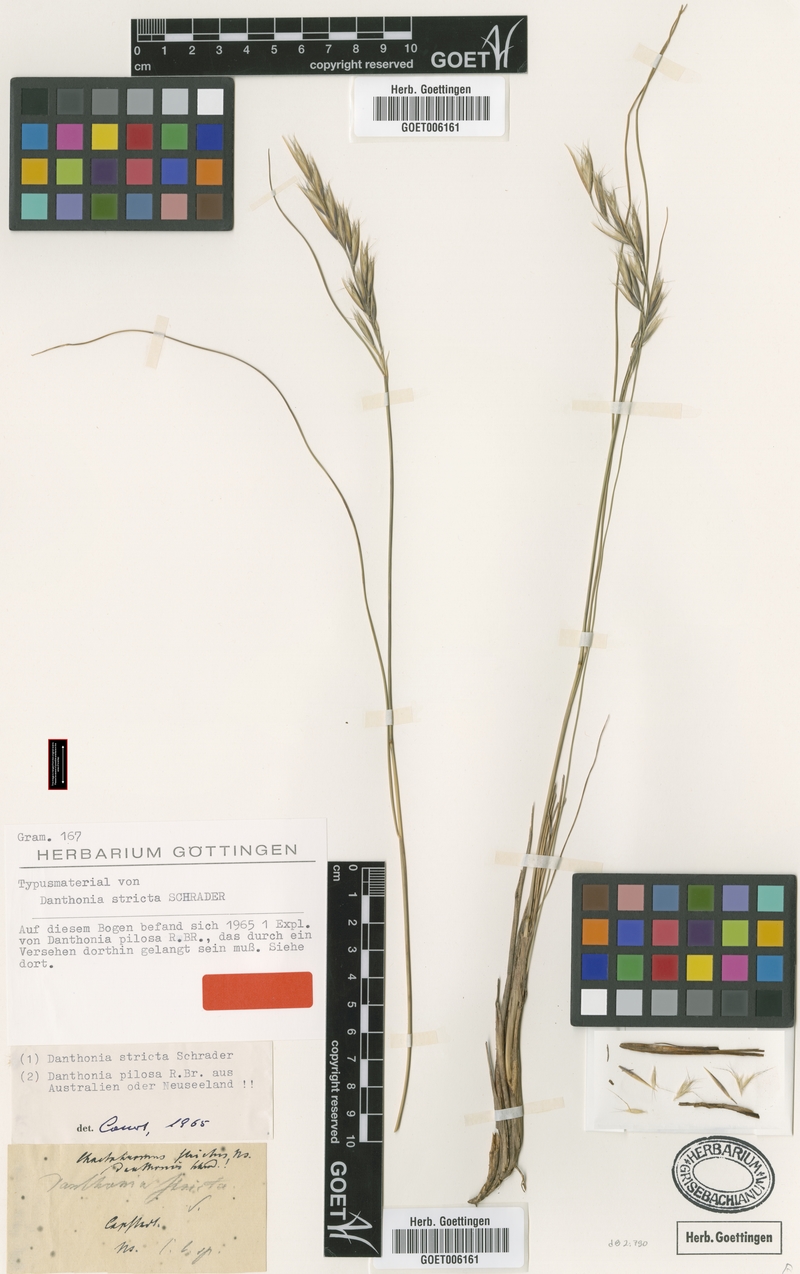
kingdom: Plantae
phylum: Tracheophyta
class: Liliopsida
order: Poales
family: Poaceae
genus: Tenaxia
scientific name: Tenaxia stricta
